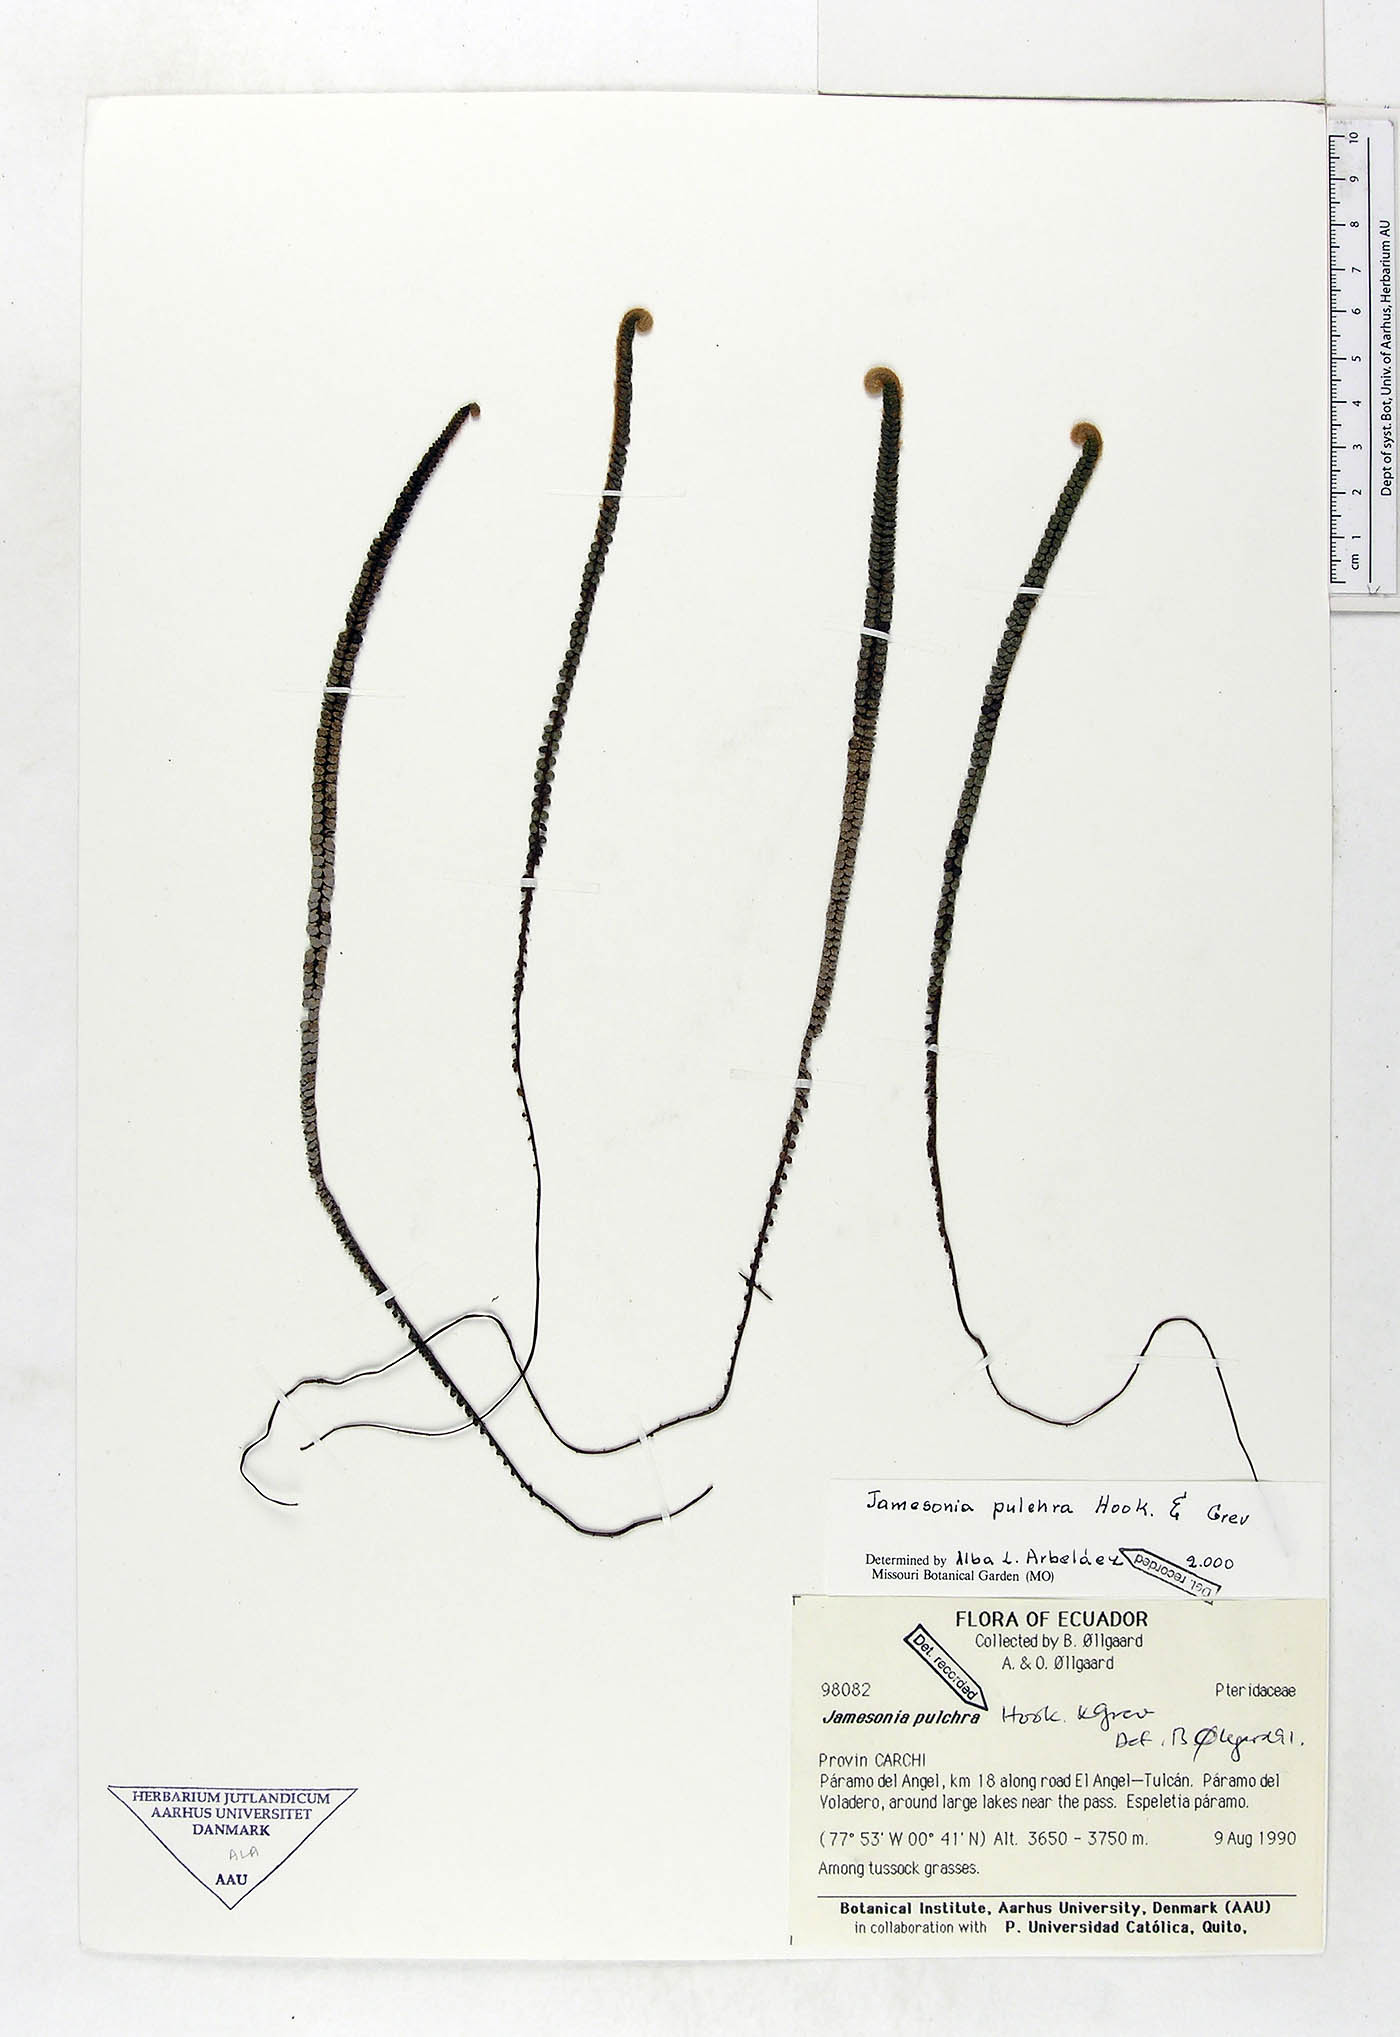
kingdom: Plantae
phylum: Tracheophyta
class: Polypodiopsida
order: Polypodiales
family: Pteridaceae
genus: Jamesonia
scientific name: Jamesonia pulchra
